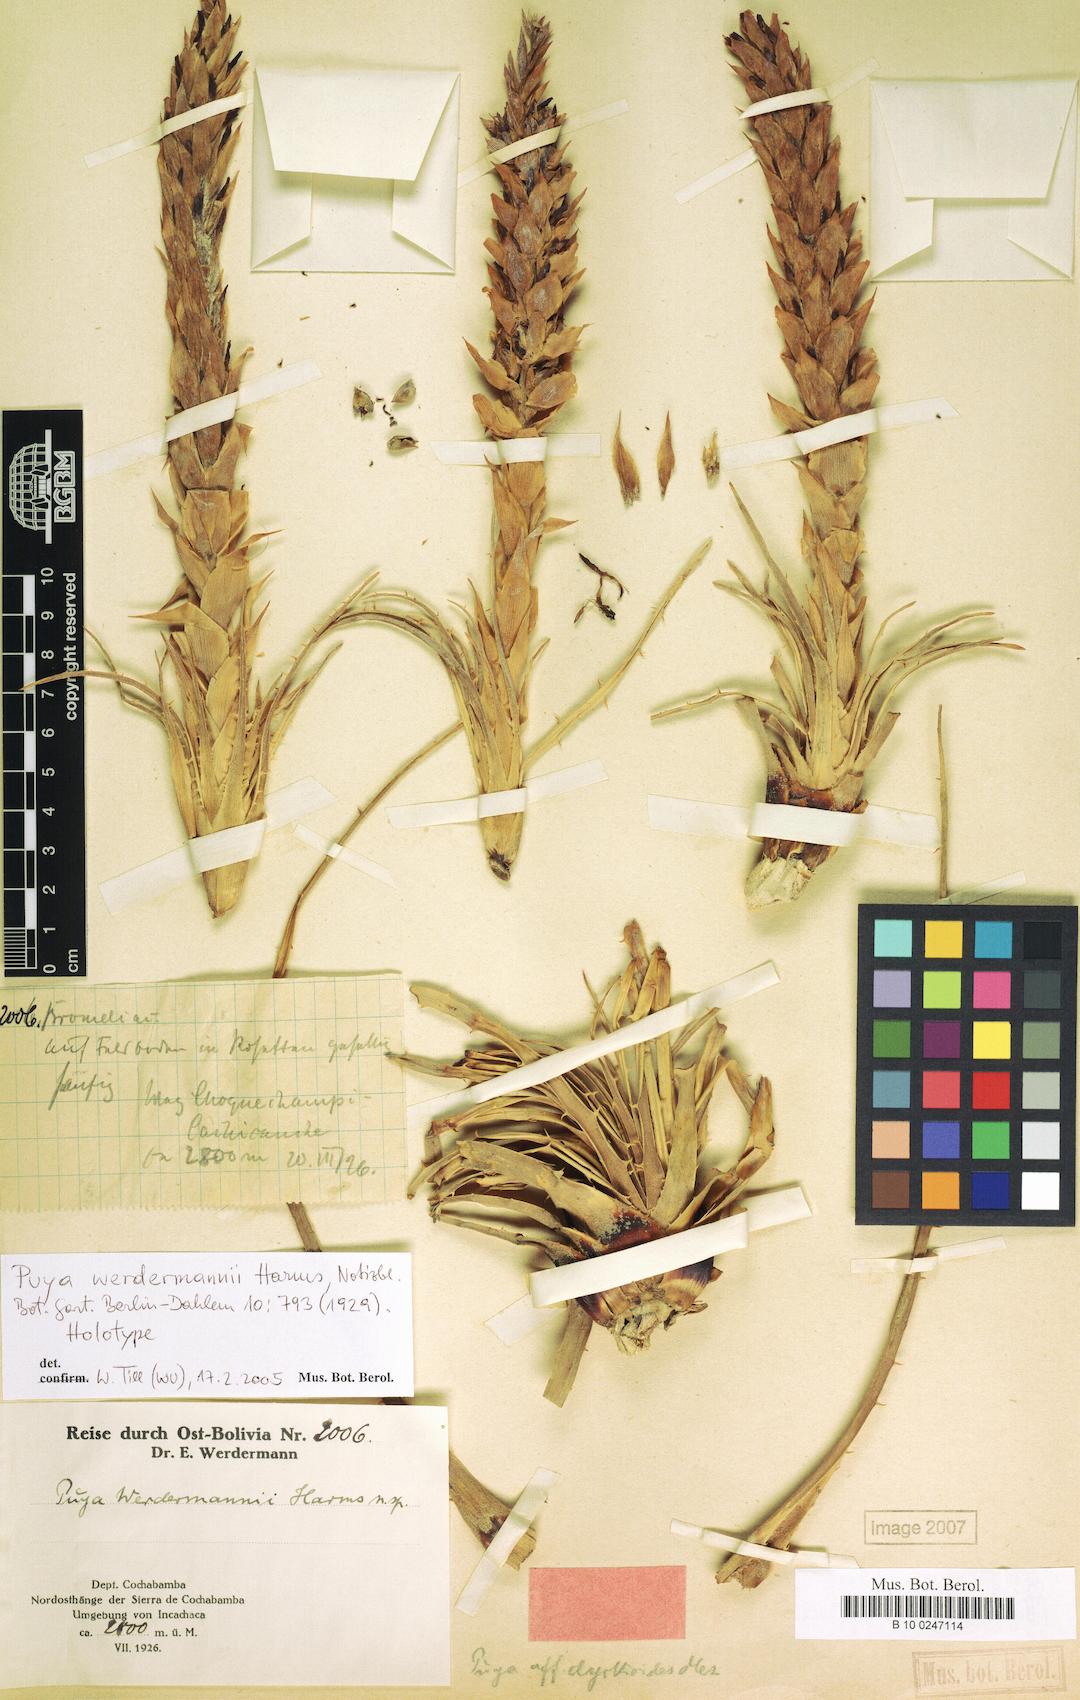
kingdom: Plantae
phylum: Tracheophyta
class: Liliopsida
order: Poales
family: Bromeliaceae
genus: Puya
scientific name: Puya humilis
